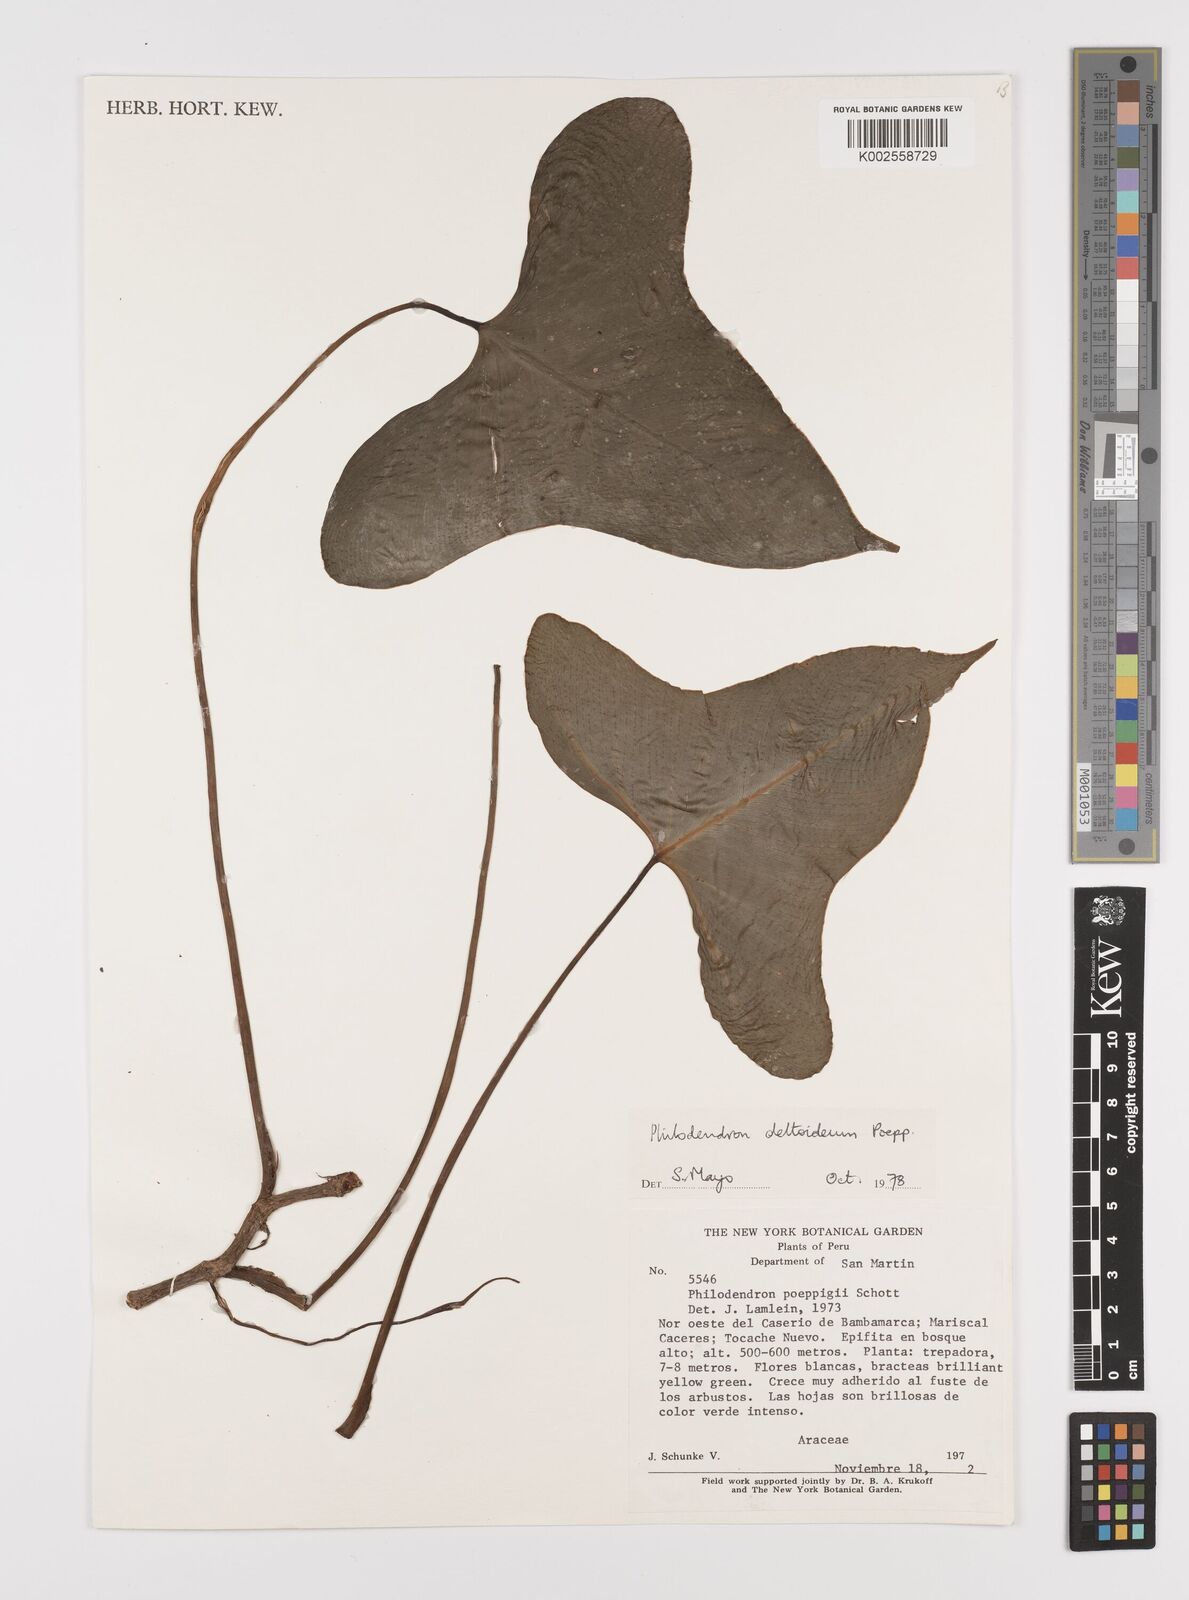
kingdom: Plantae
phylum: Tracheophyta
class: Liliopsida
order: Alismatales
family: Araceae
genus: Philodendron
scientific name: Philodendron deltoideum
